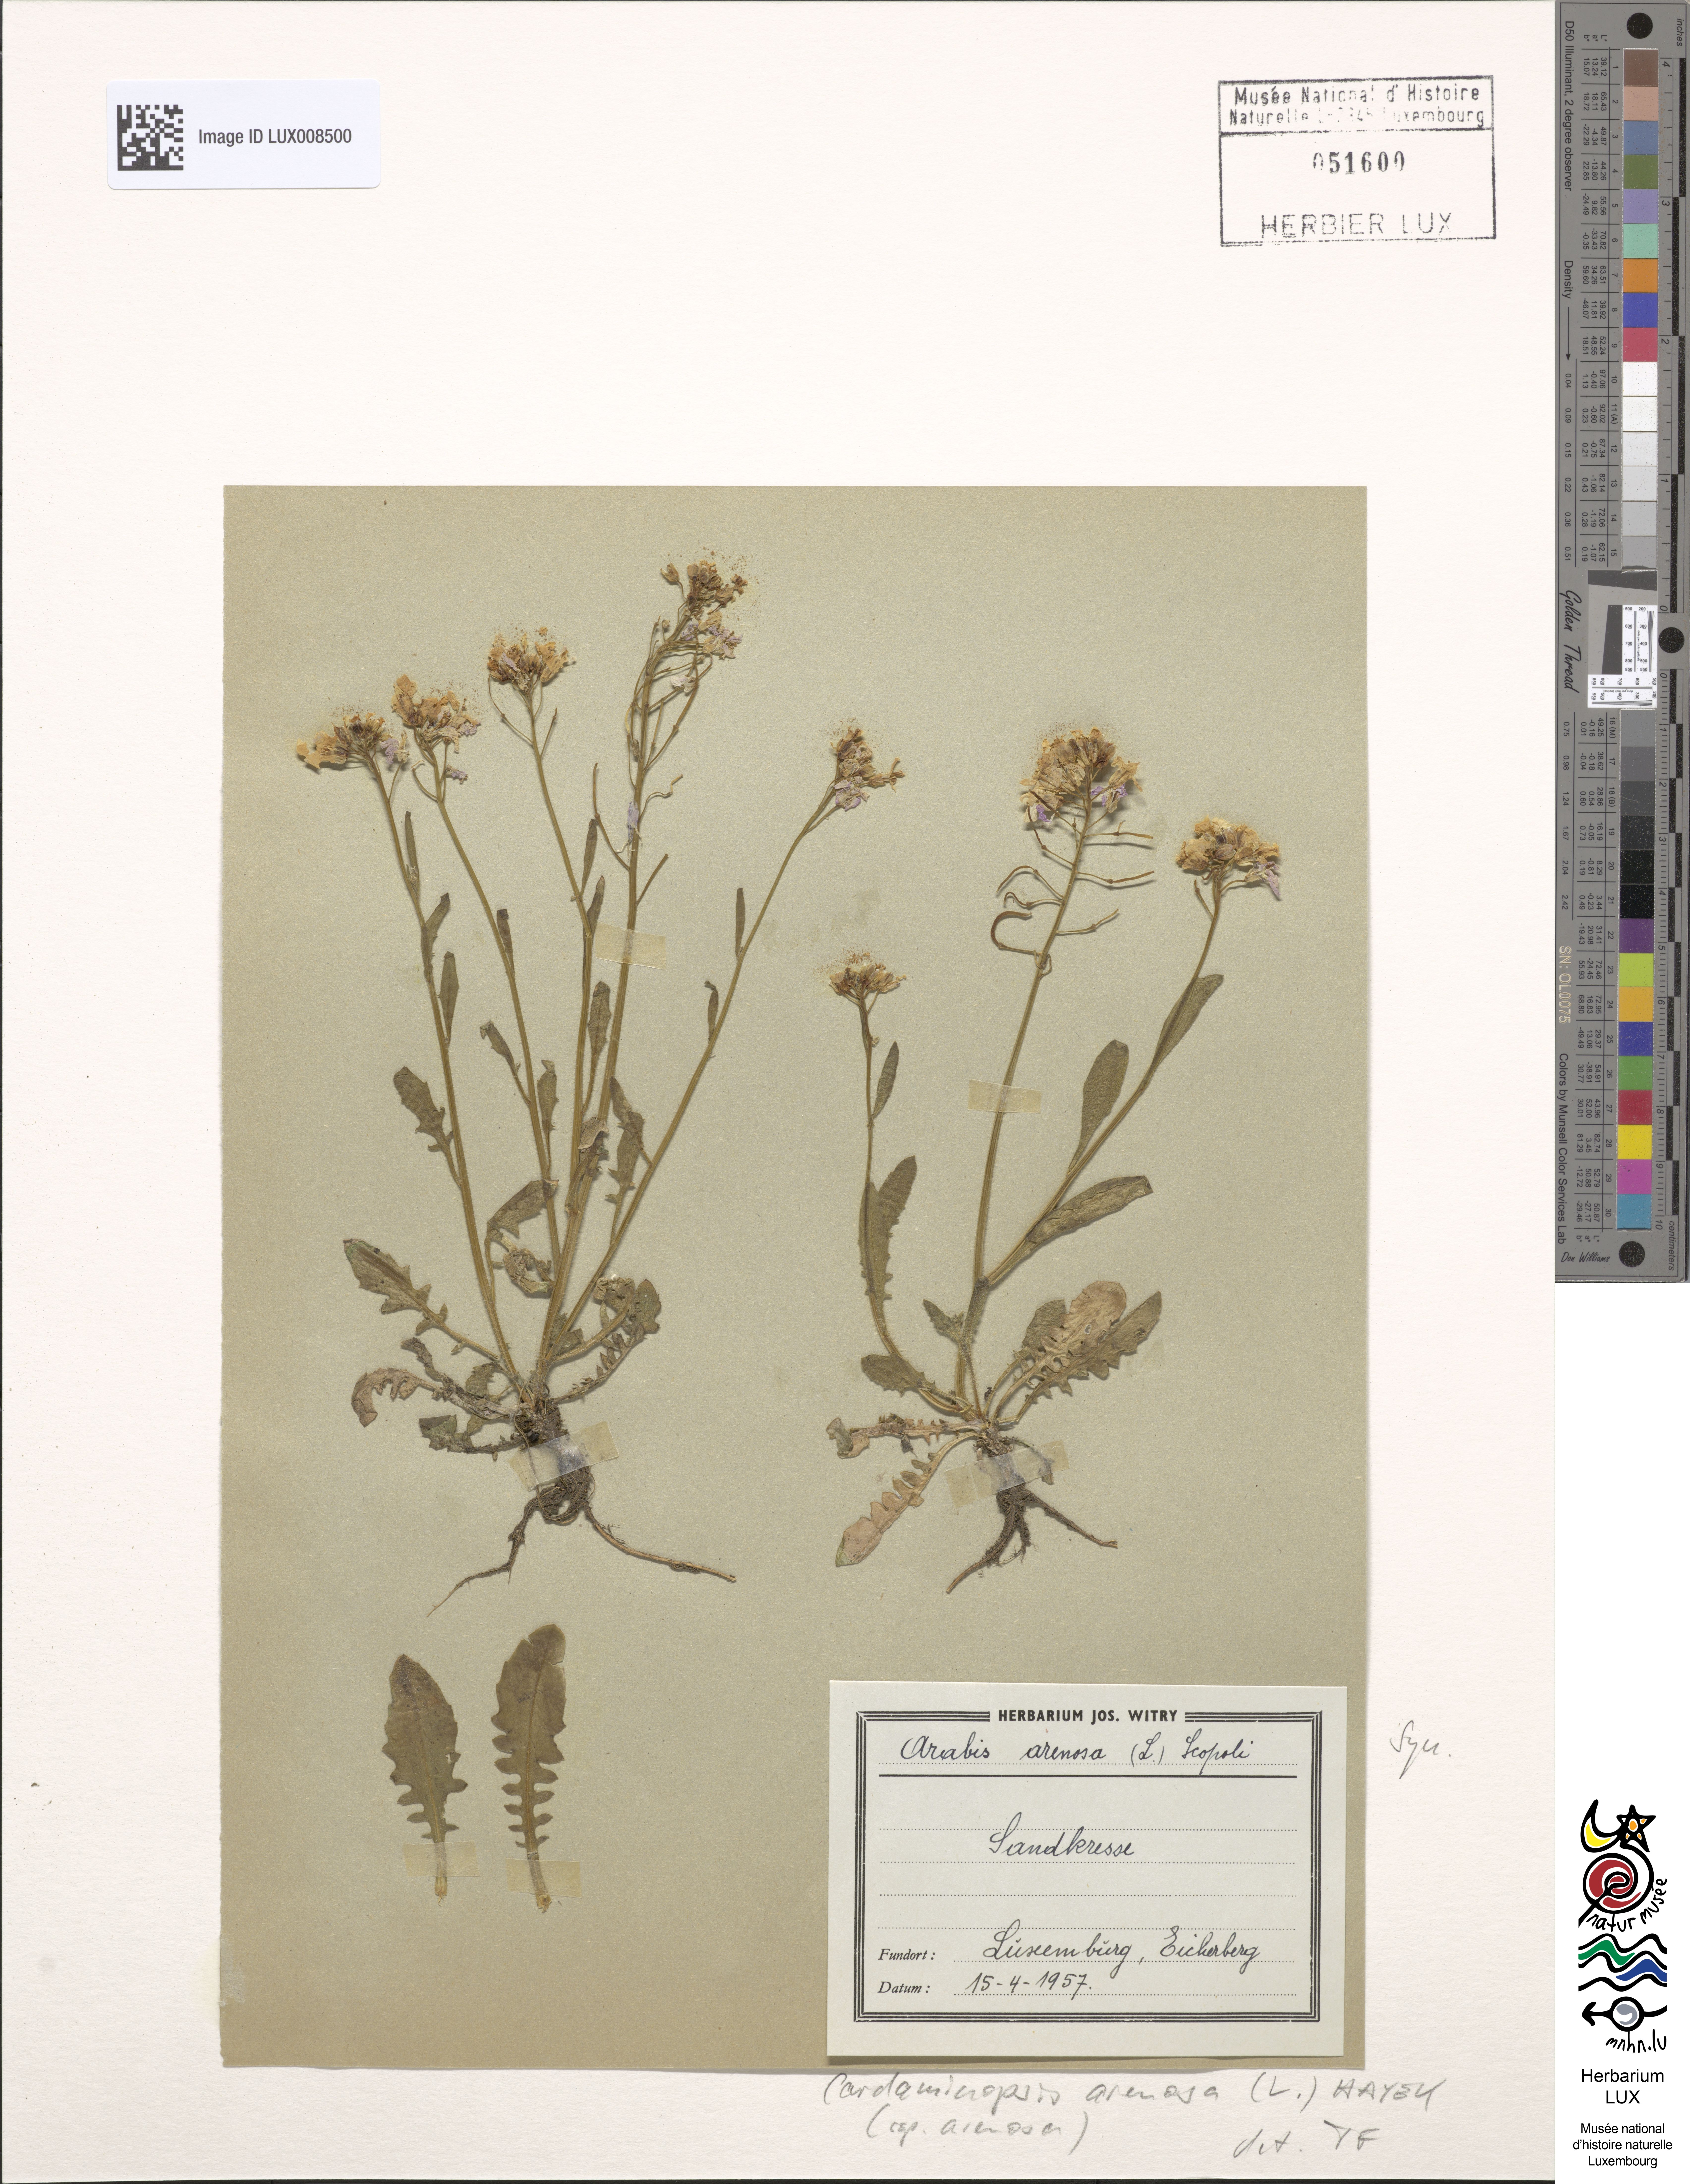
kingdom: Plantae
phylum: Tracheophyta
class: Magnoliopsida
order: Brassicales
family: Brassicaceae
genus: Arabidopsis
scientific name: Arabidopsis arenosa
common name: Sand rock-cress
